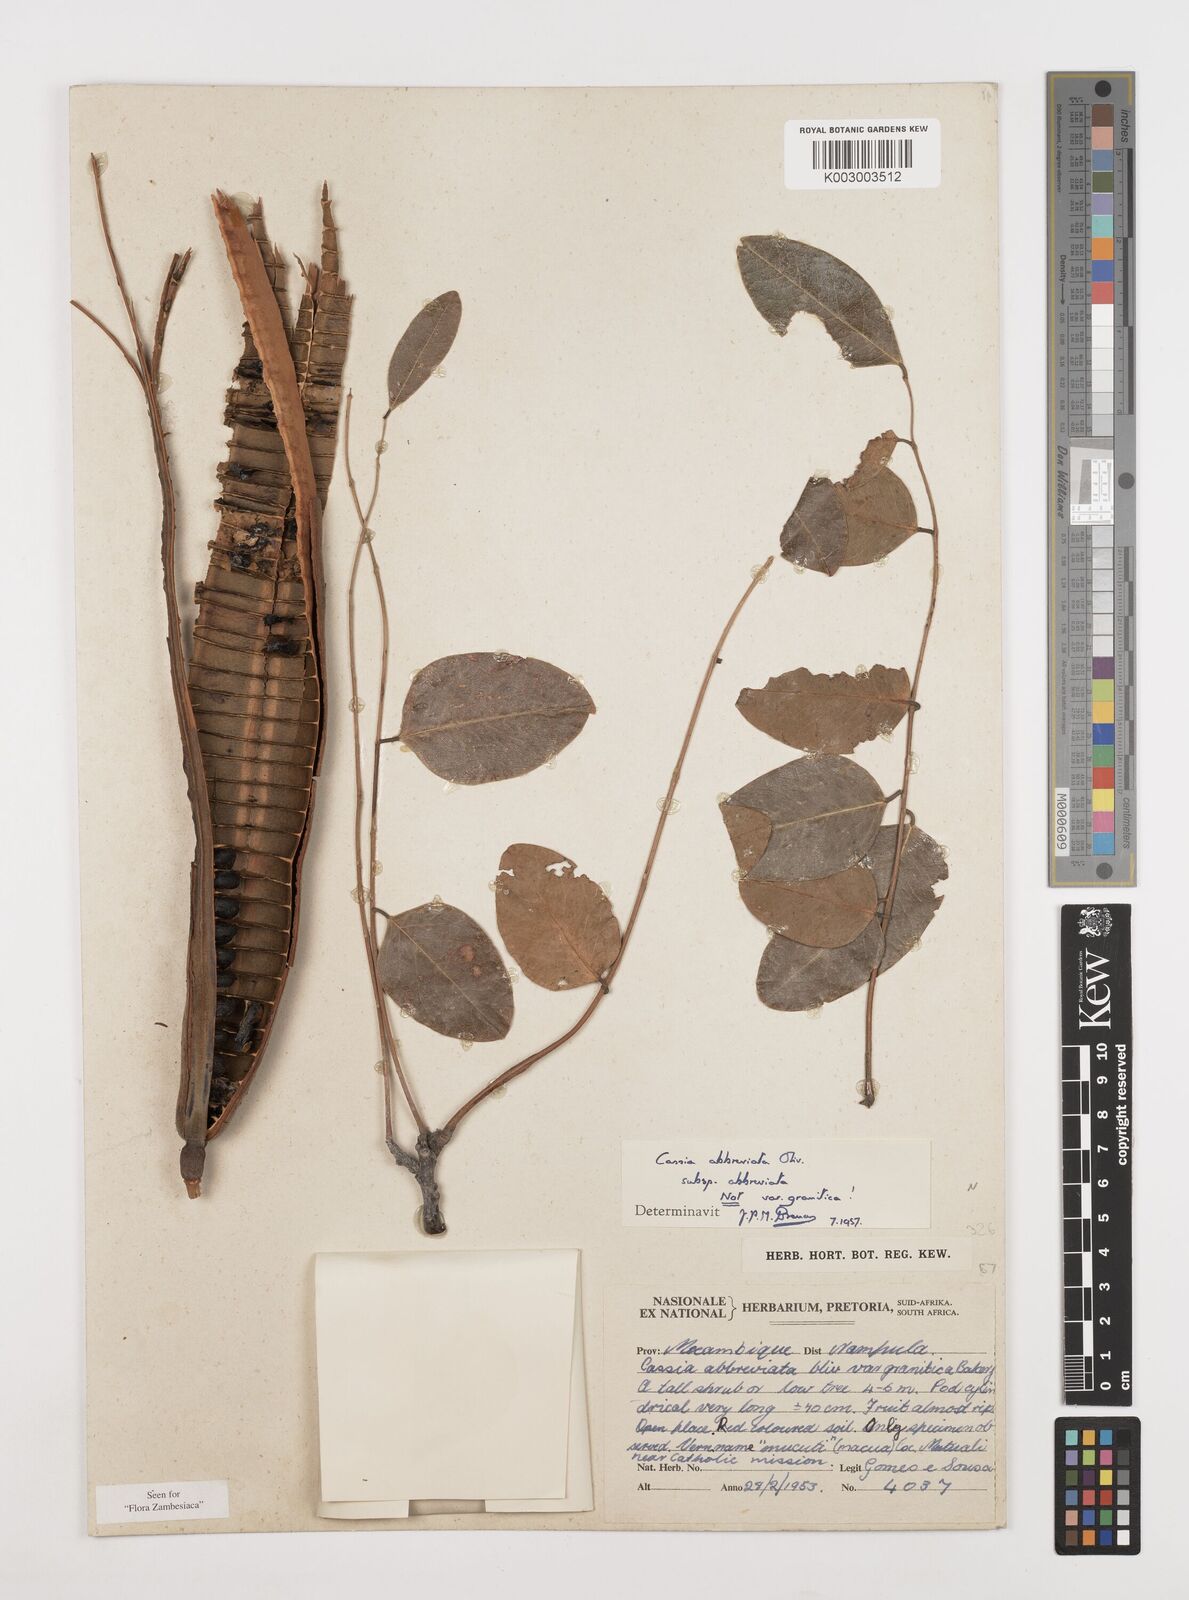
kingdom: Plantae
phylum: Tracheophyta
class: Magnoliopsida
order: Fabales
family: Fabaceae
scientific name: Fabaceae
